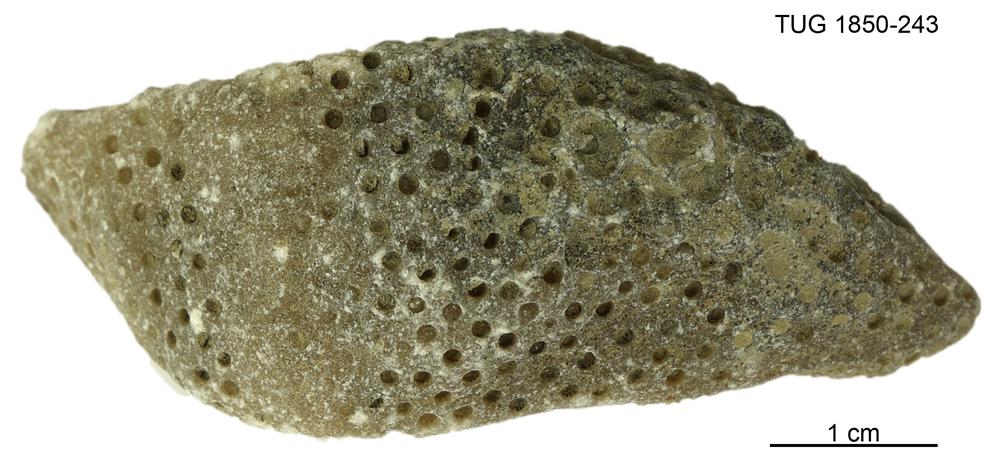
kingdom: Animalia
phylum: Cnidaria
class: Anthozoa
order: Heliolitina
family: Heliolitidae
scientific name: Heliolitidae
